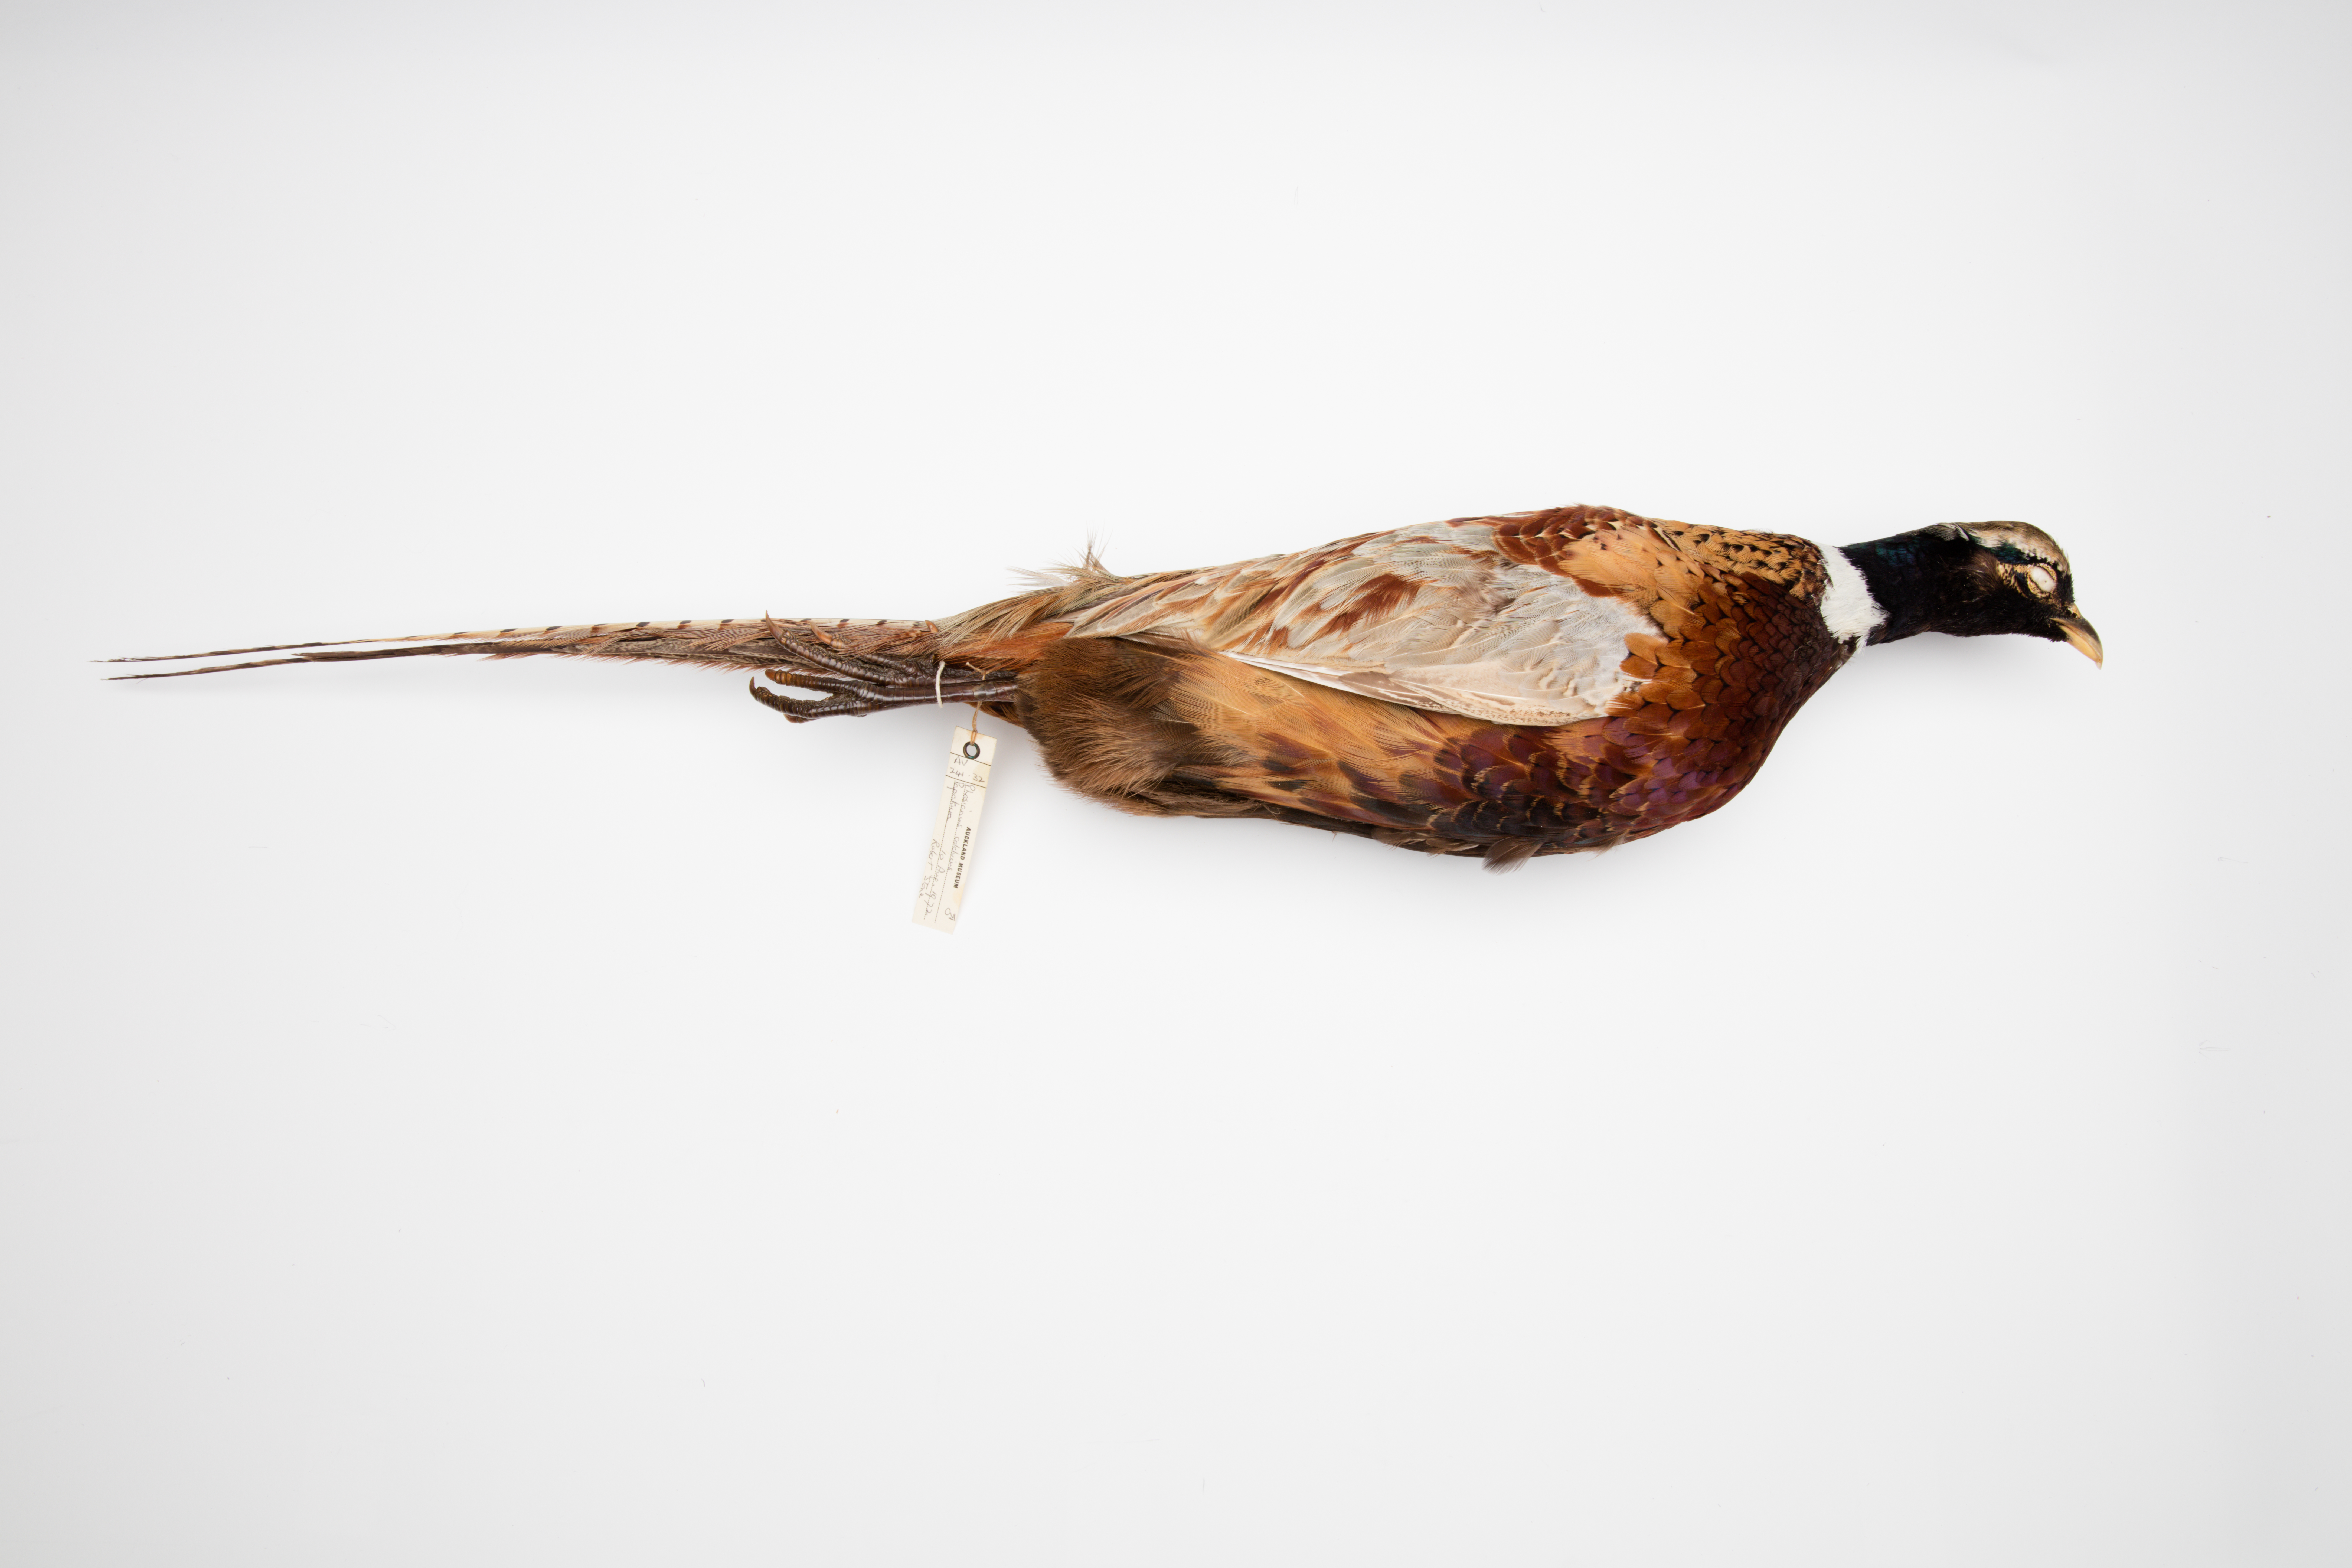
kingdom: Animalia
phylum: Chordata
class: Aves
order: Galliformes
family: Phasianidae
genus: Phasianus
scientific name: Phasianus colchicus
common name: Common pheasant
